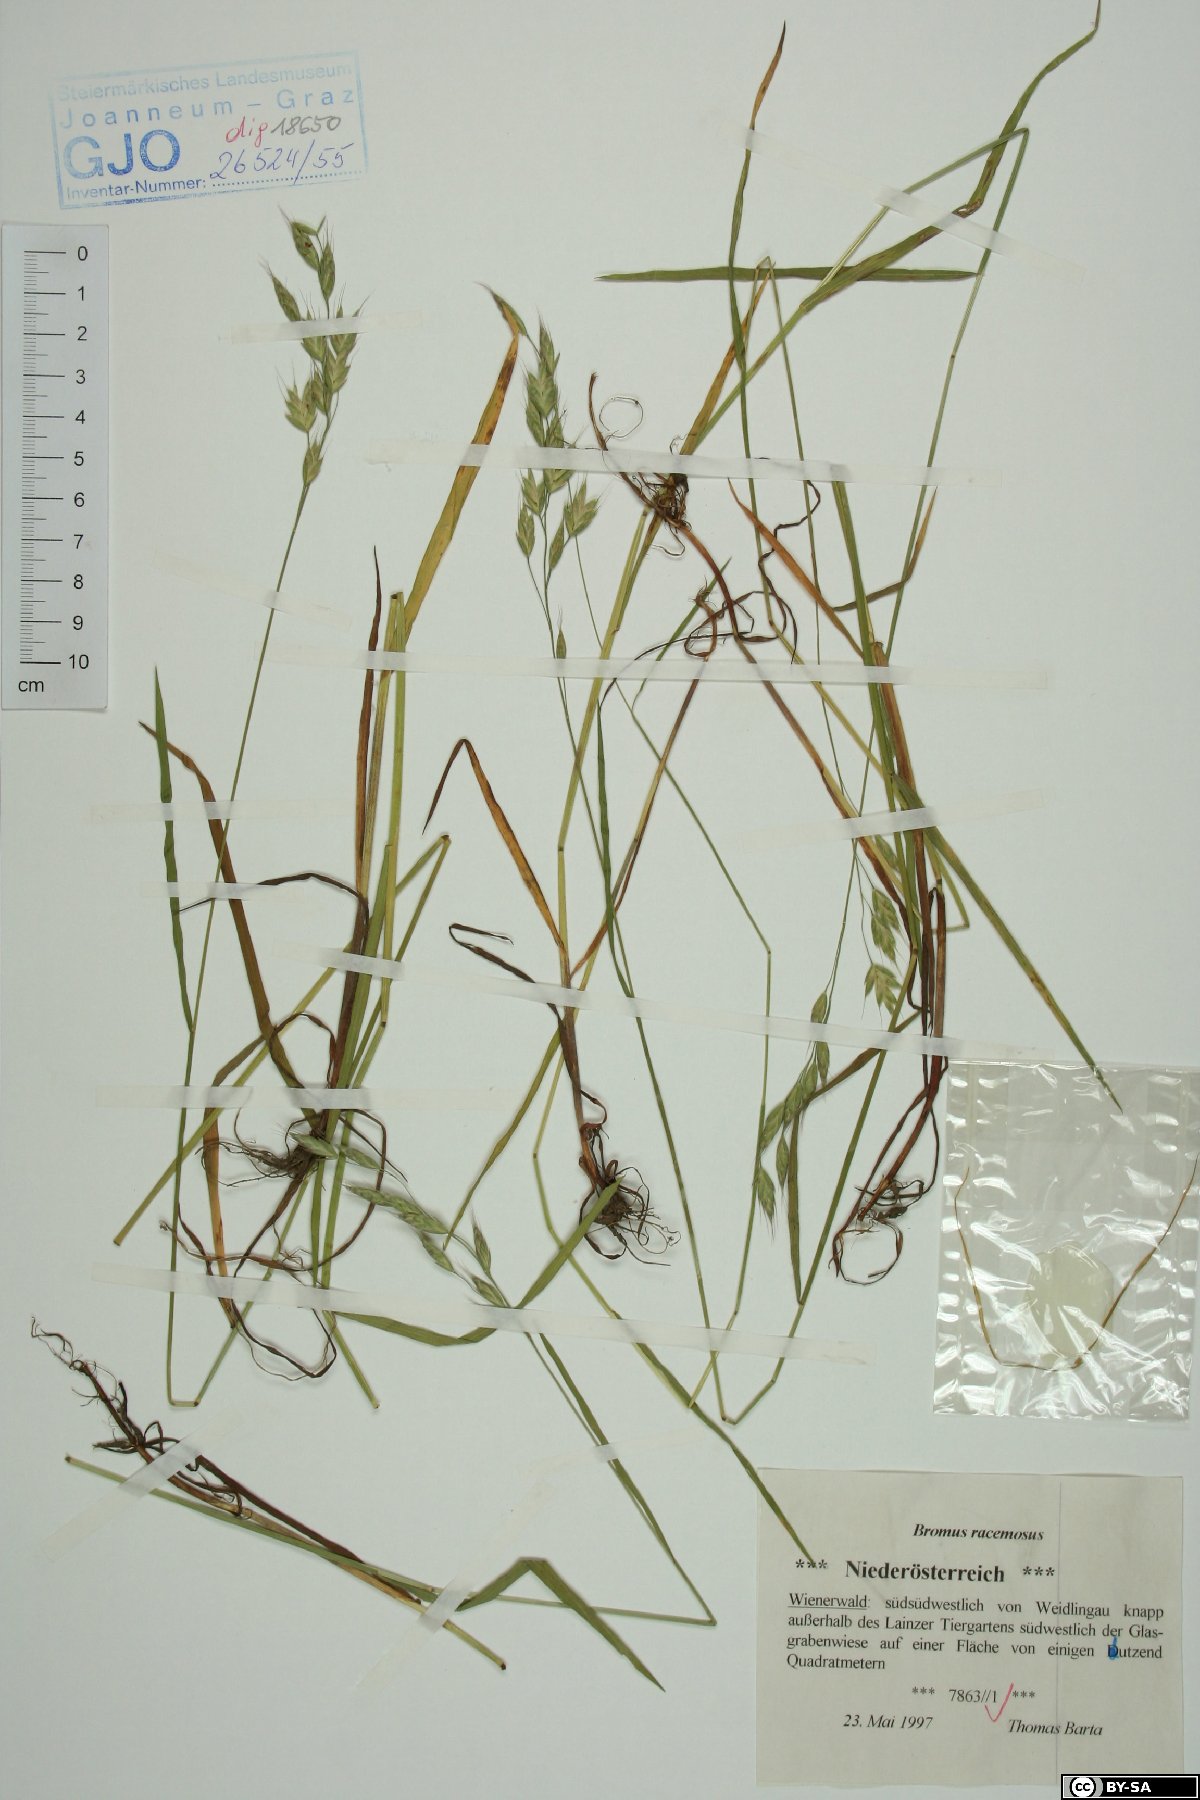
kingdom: Plantae
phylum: Tracheophyta
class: Liliopsida
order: Poales
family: Poaceae
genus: Bromus
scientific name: Bromus racemosus
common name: Bald brome
